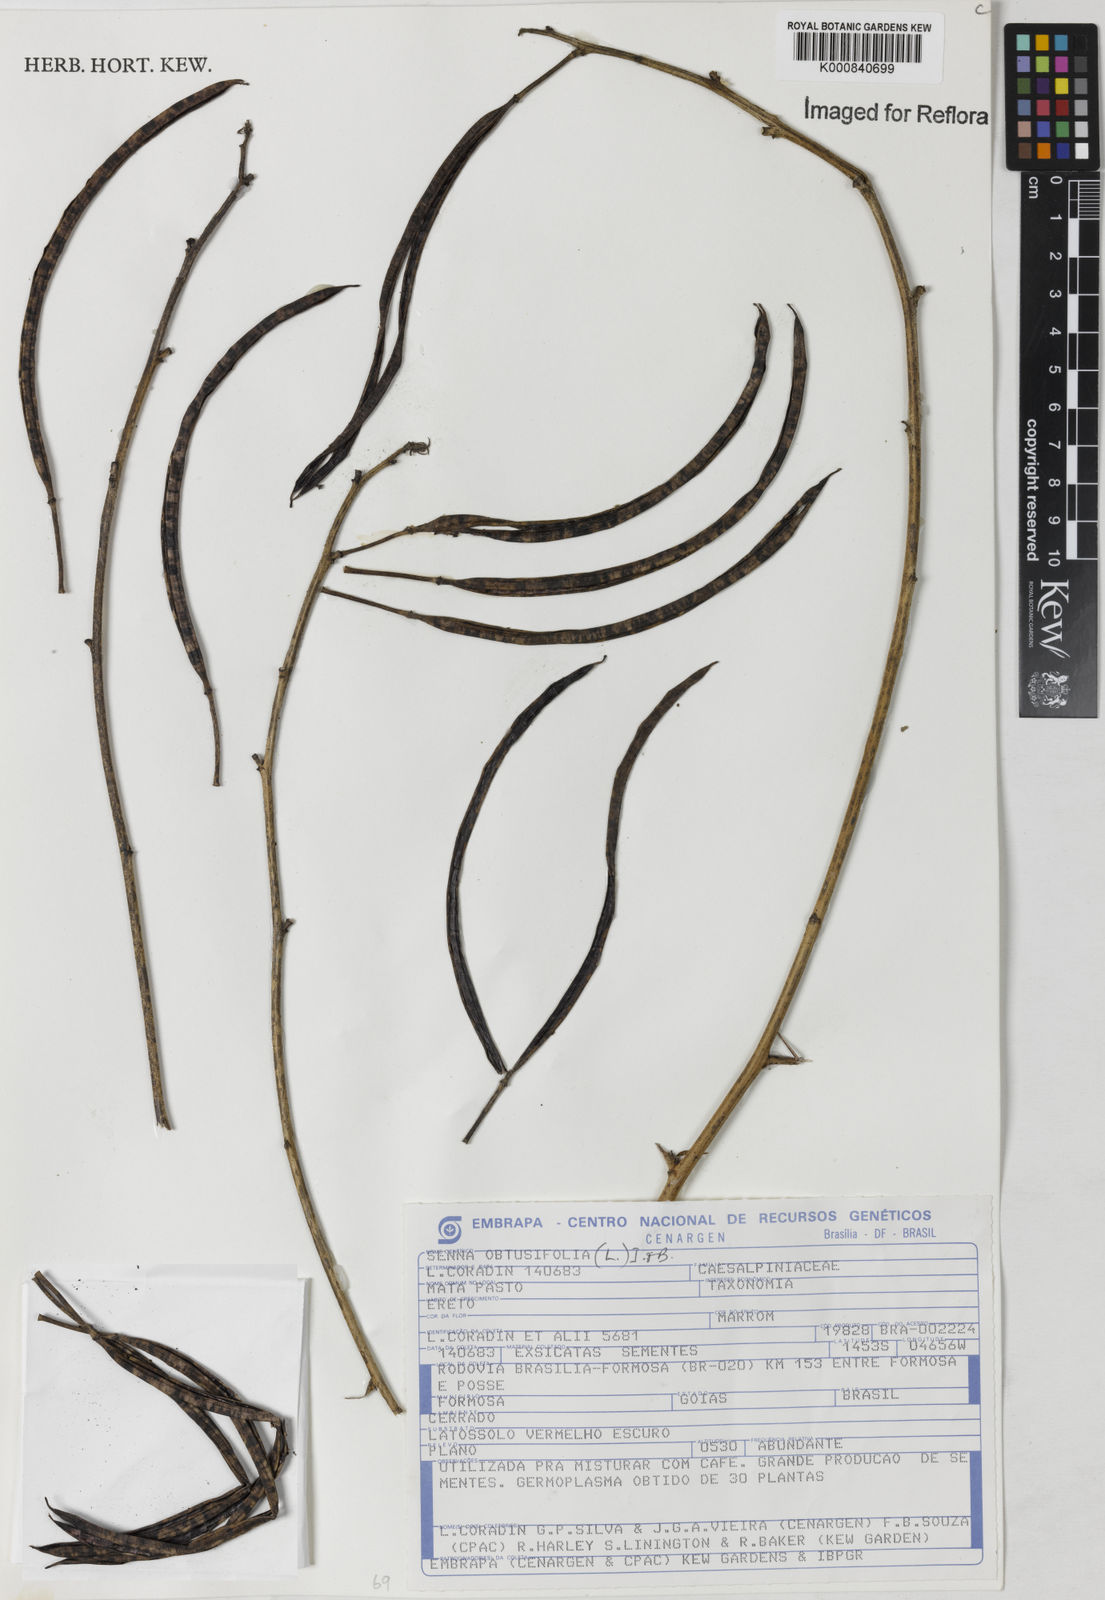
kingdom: Plantae
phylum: Tracheophyta
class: Magnoliopsida
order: Fabales
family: Fabaceae
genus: Senna
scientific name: Senna obtusifolia
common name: Java-bean
